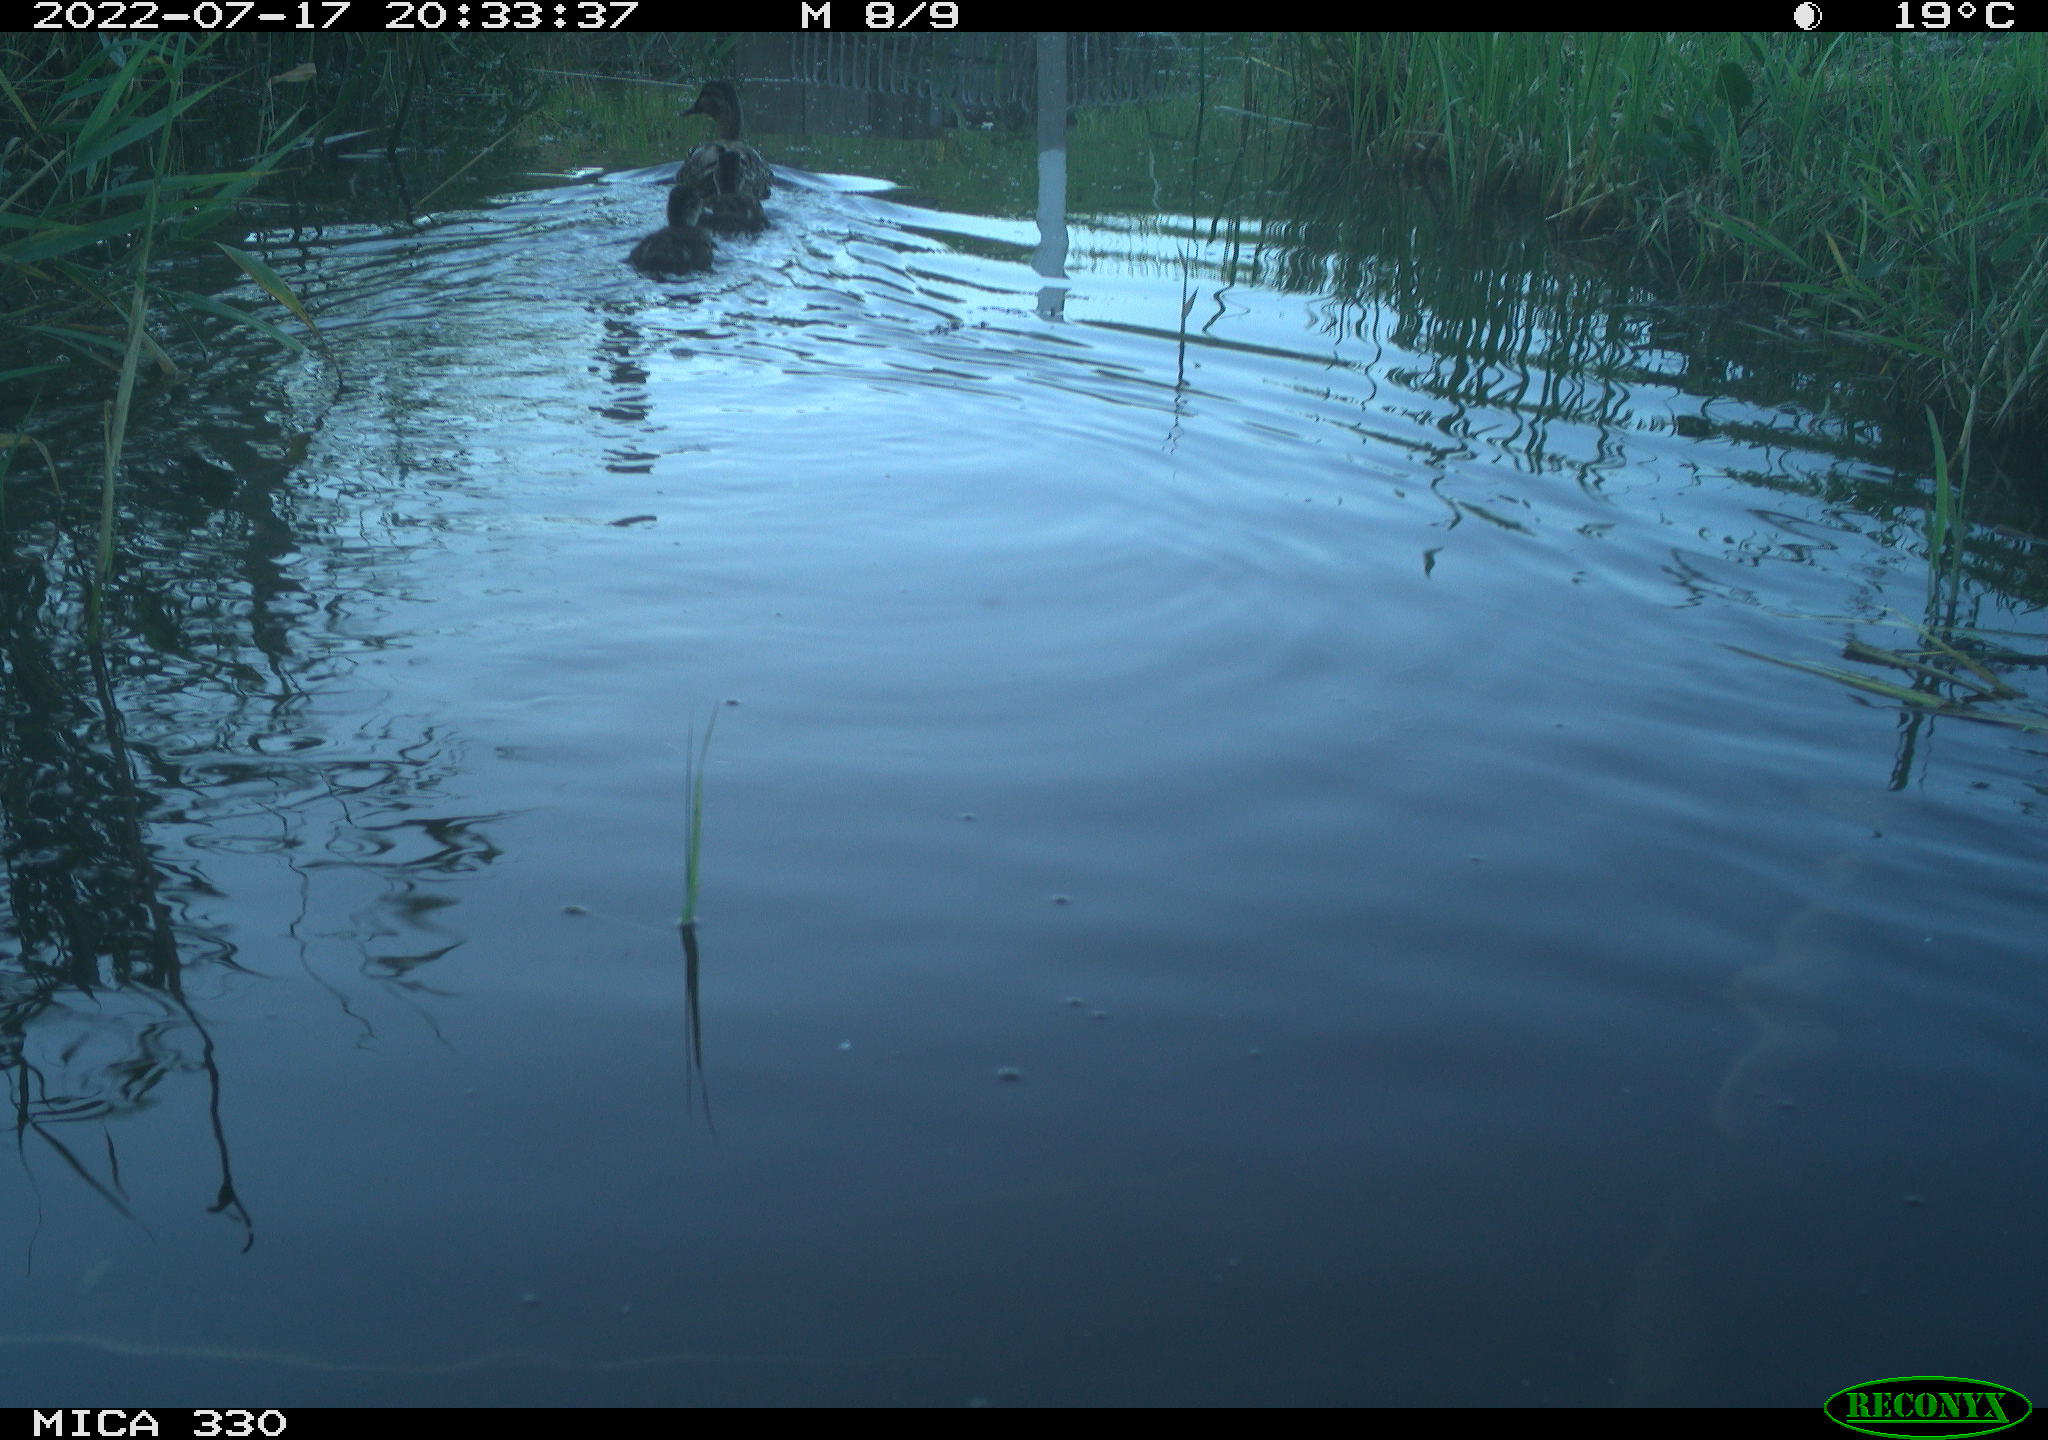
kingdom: Animalia
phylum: Chordata
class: Aves
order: Anseriformes
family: Anatidae
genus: Anas
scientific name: Anas platyrhynchos
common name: Mallard
